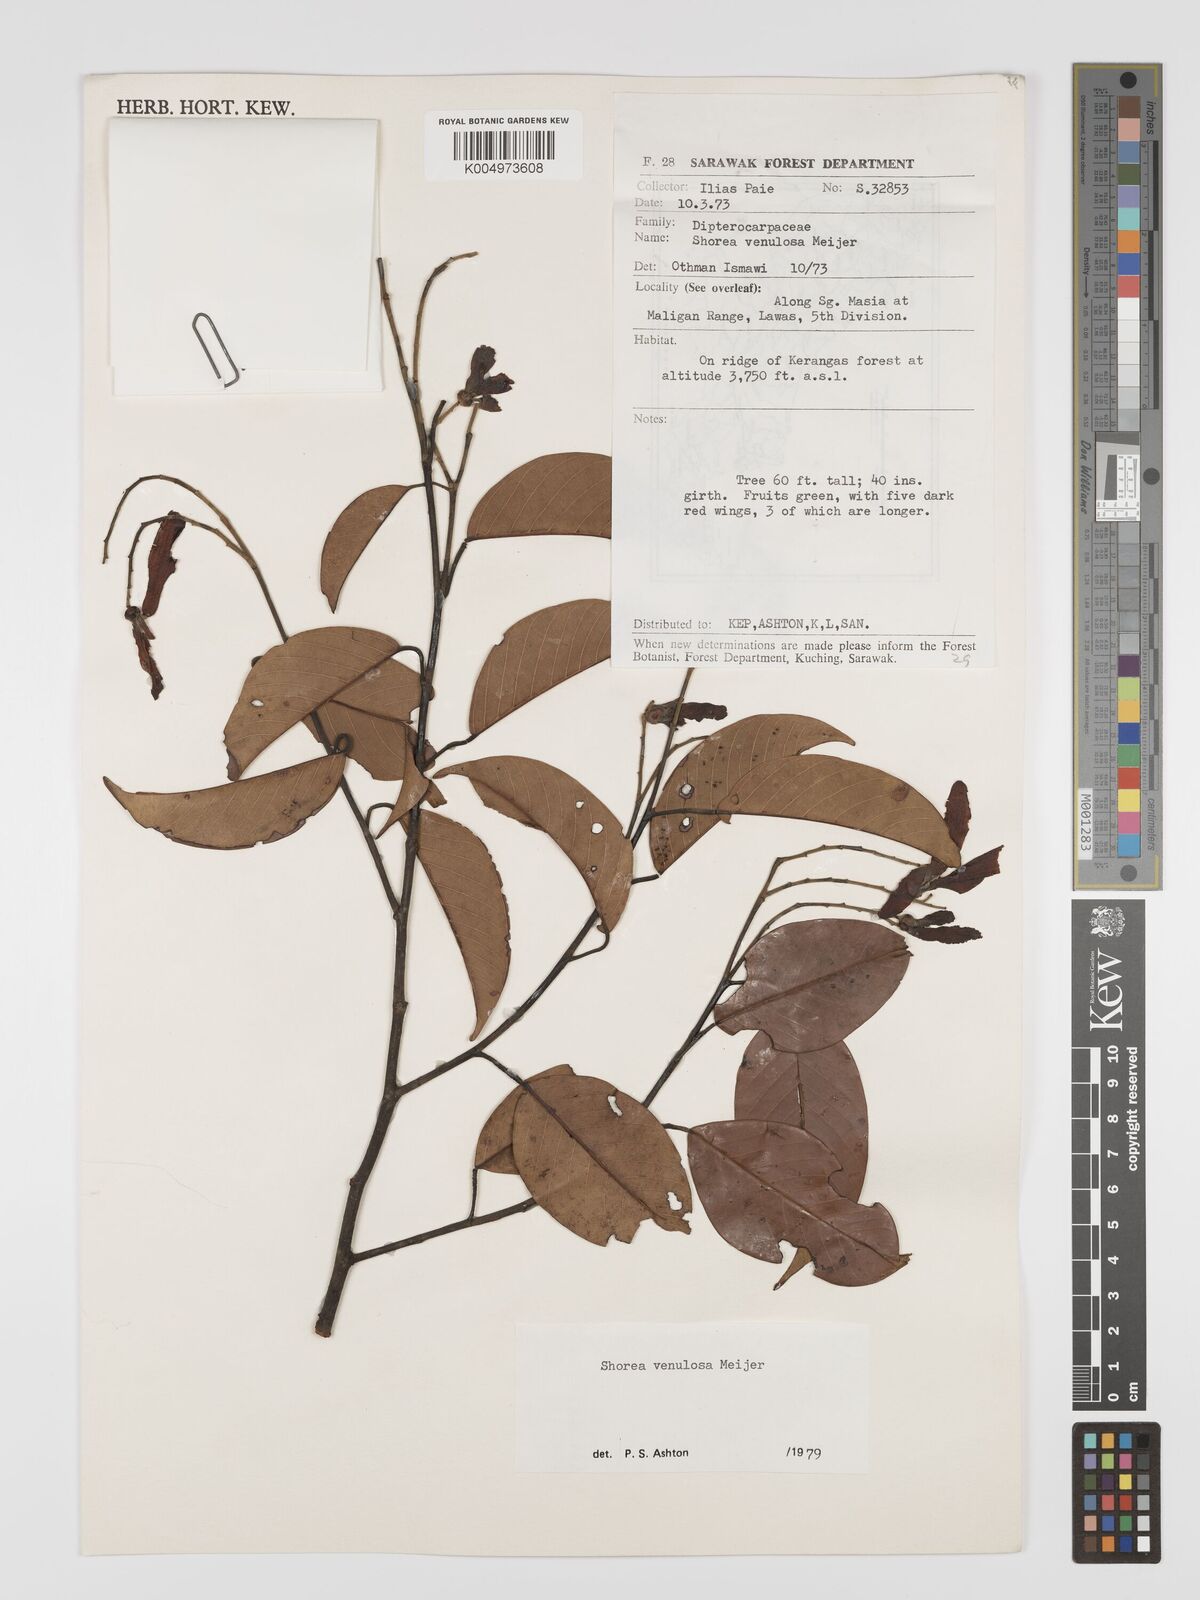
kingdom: Plantae
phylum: Tracheophyta
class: Magnoliopsida
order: Malvales
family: Dipterocarpaceae
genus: Shorea
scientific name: Shorea venulosa
